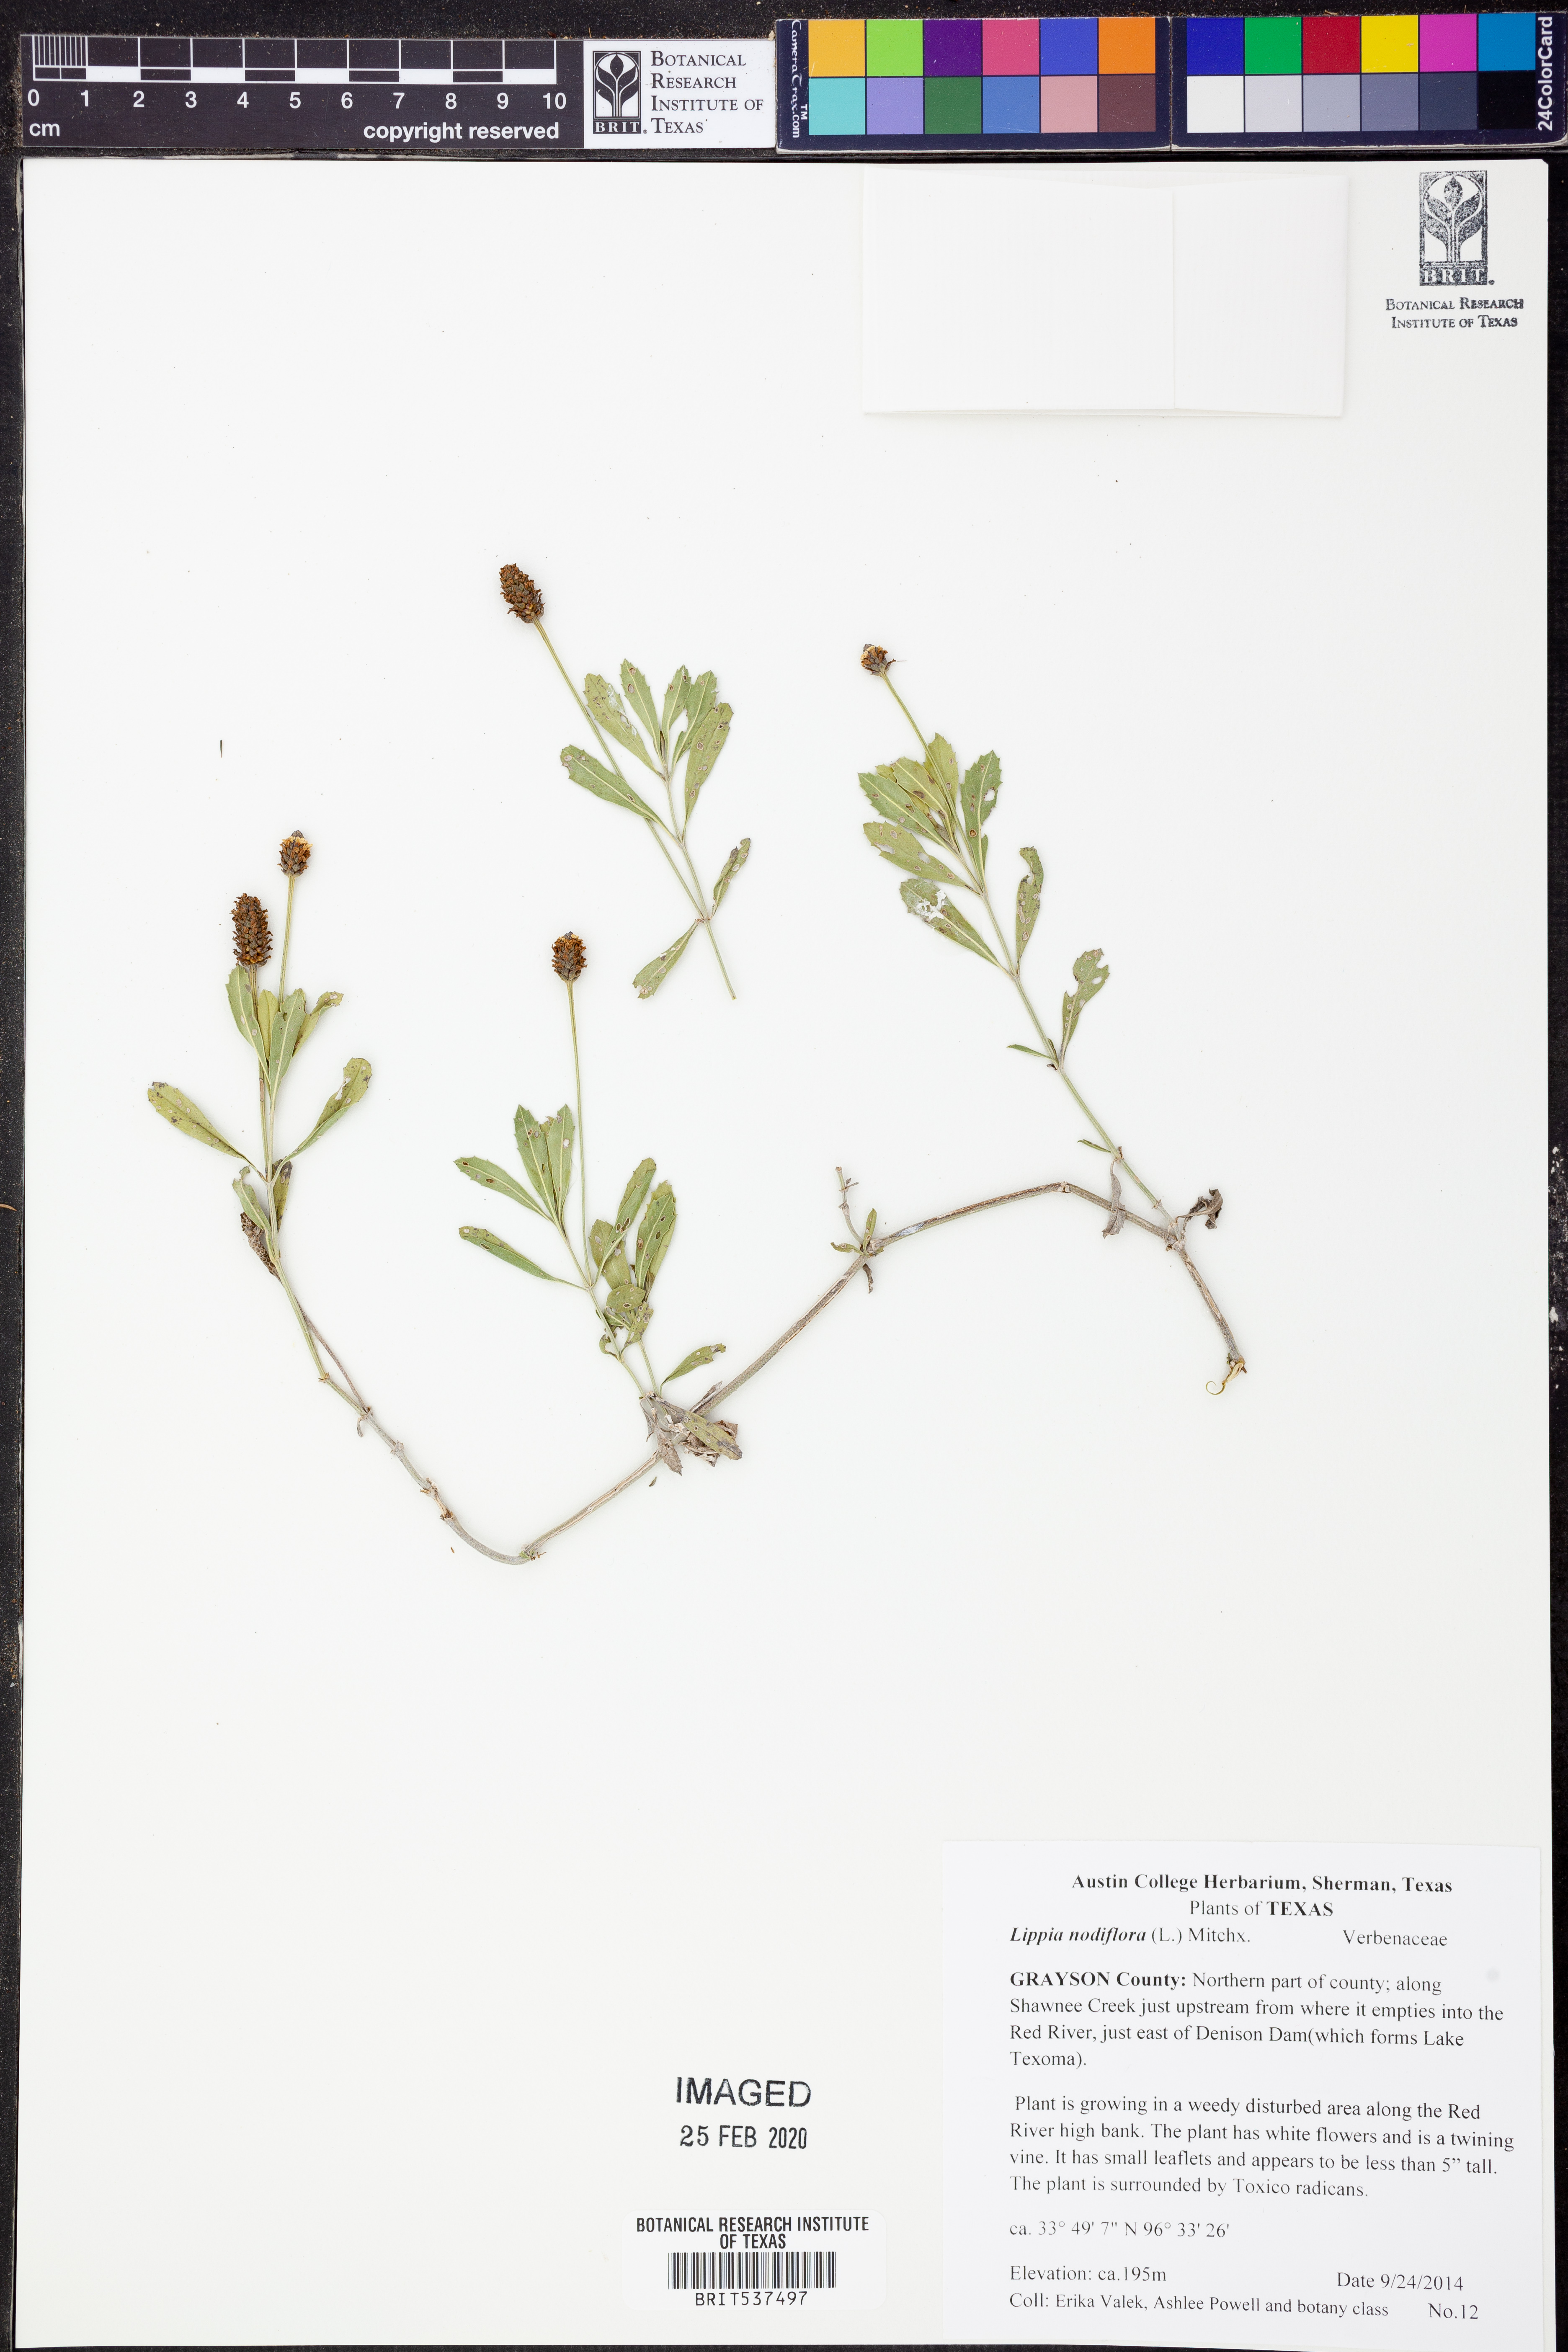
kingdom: Plantae
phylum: Tracheophyta
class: Magnoliopsida
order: Lamiales
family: Verbenaceae
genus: Phyla
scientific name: Phyla nodiflora
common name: Frogfruit
